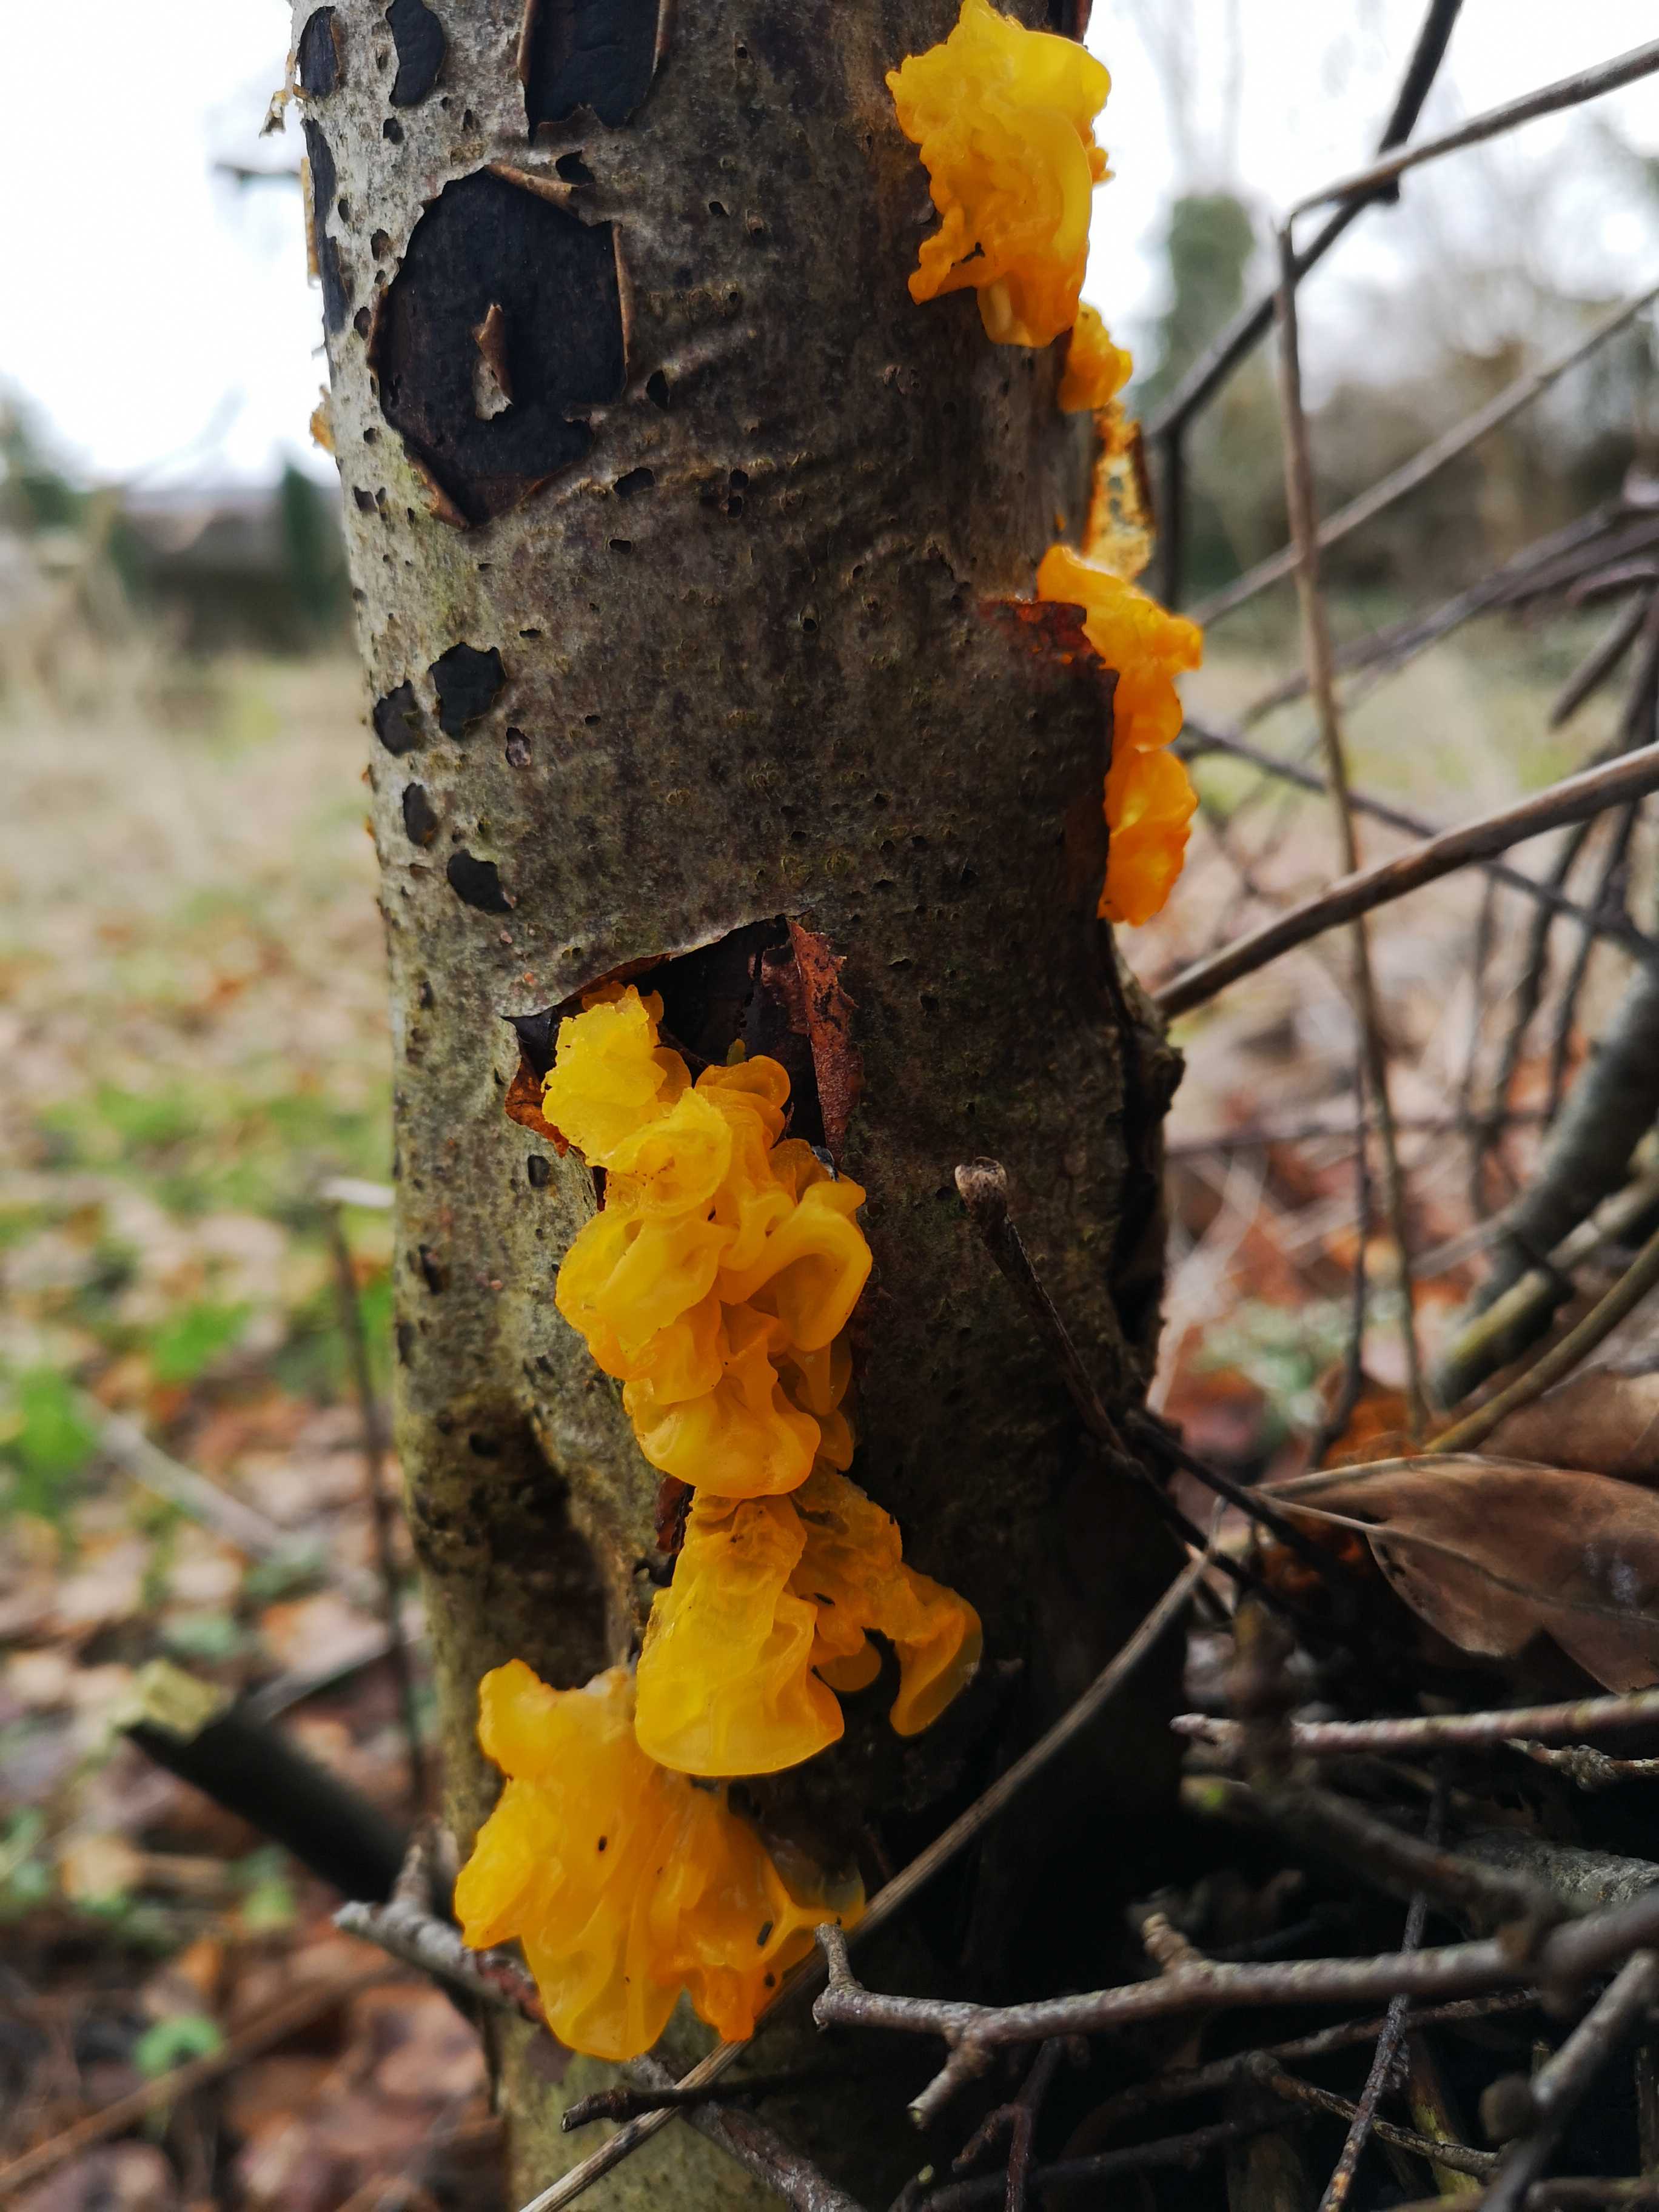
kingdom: Fungi
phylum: Basidiomycota
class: Tremellomycetes
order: Tremellales
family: Tremellaceae
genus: Tremella
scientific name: Tremella mesenterica
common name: gul bævresvamp
